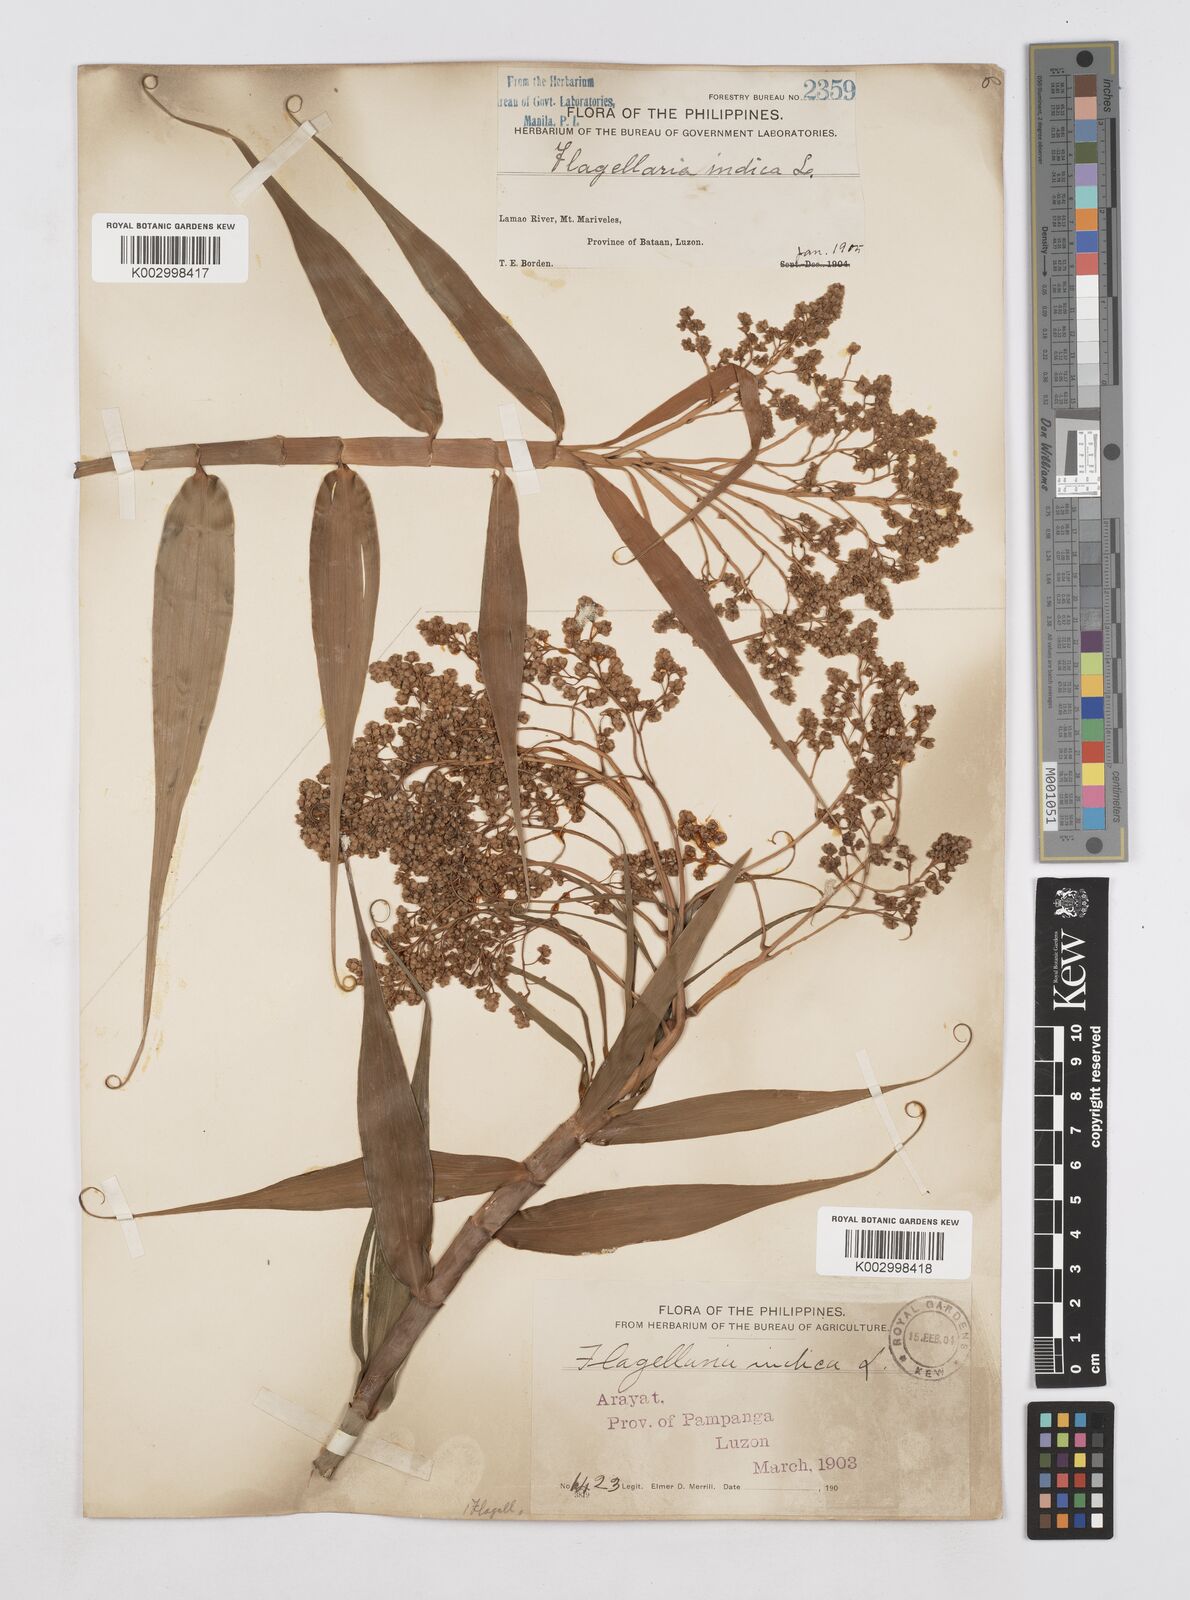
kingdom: Plantae
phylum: Tracheophyta
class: Liliopsida
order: Poales
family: Flagellariaceae
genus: Flagellaria
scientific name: Flagellaria indica
